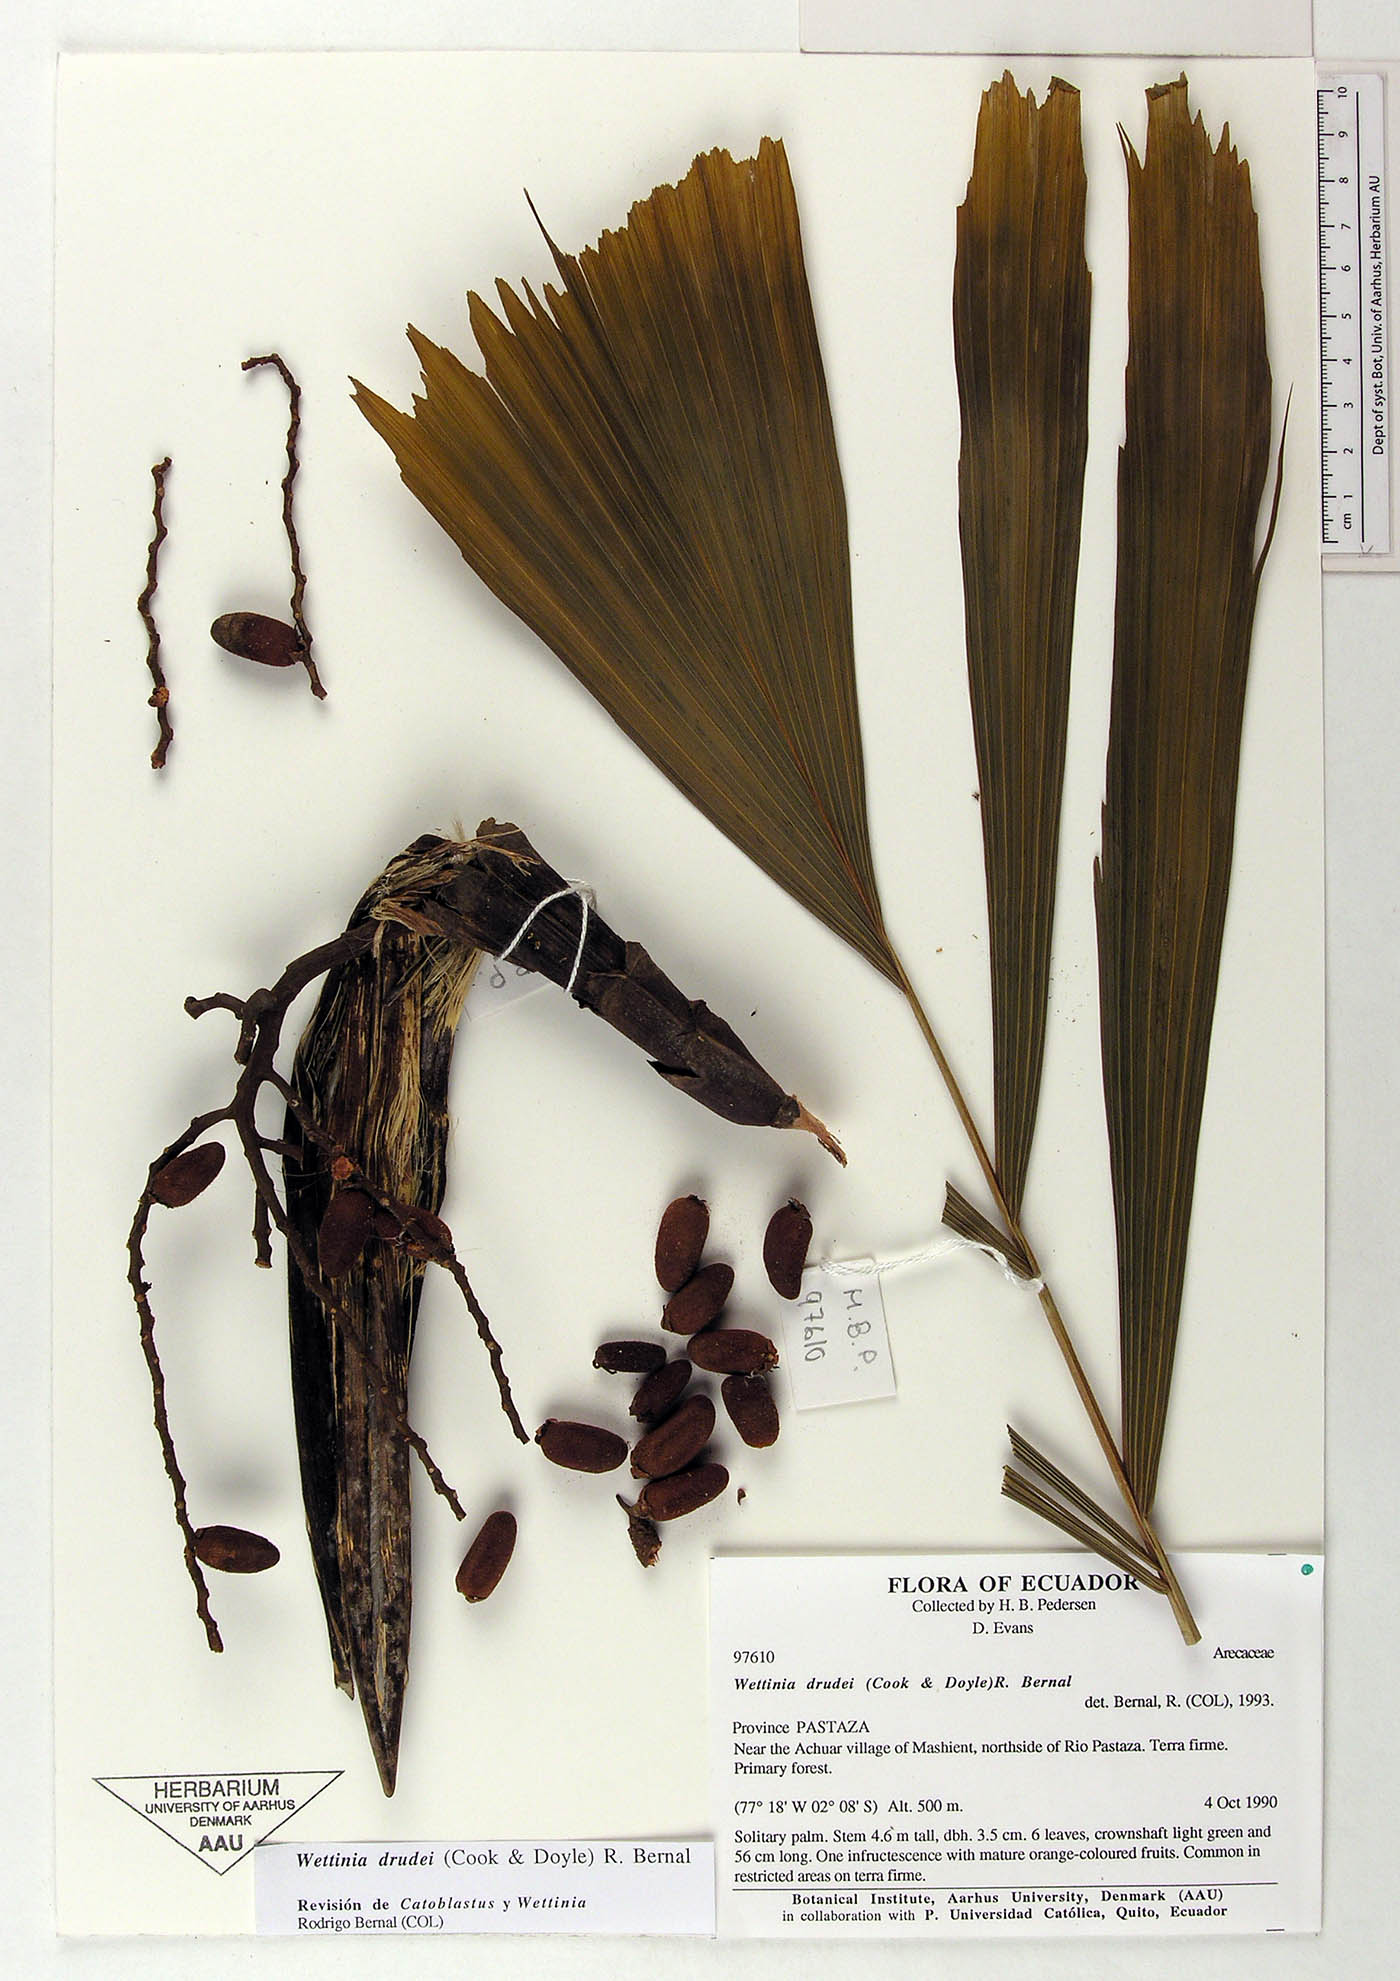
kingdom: Plantae
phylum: Tracheophyta
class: Liliopsida
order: Arecales
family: Arecaceae
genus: Wettinia
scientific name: Wettinia drudei
